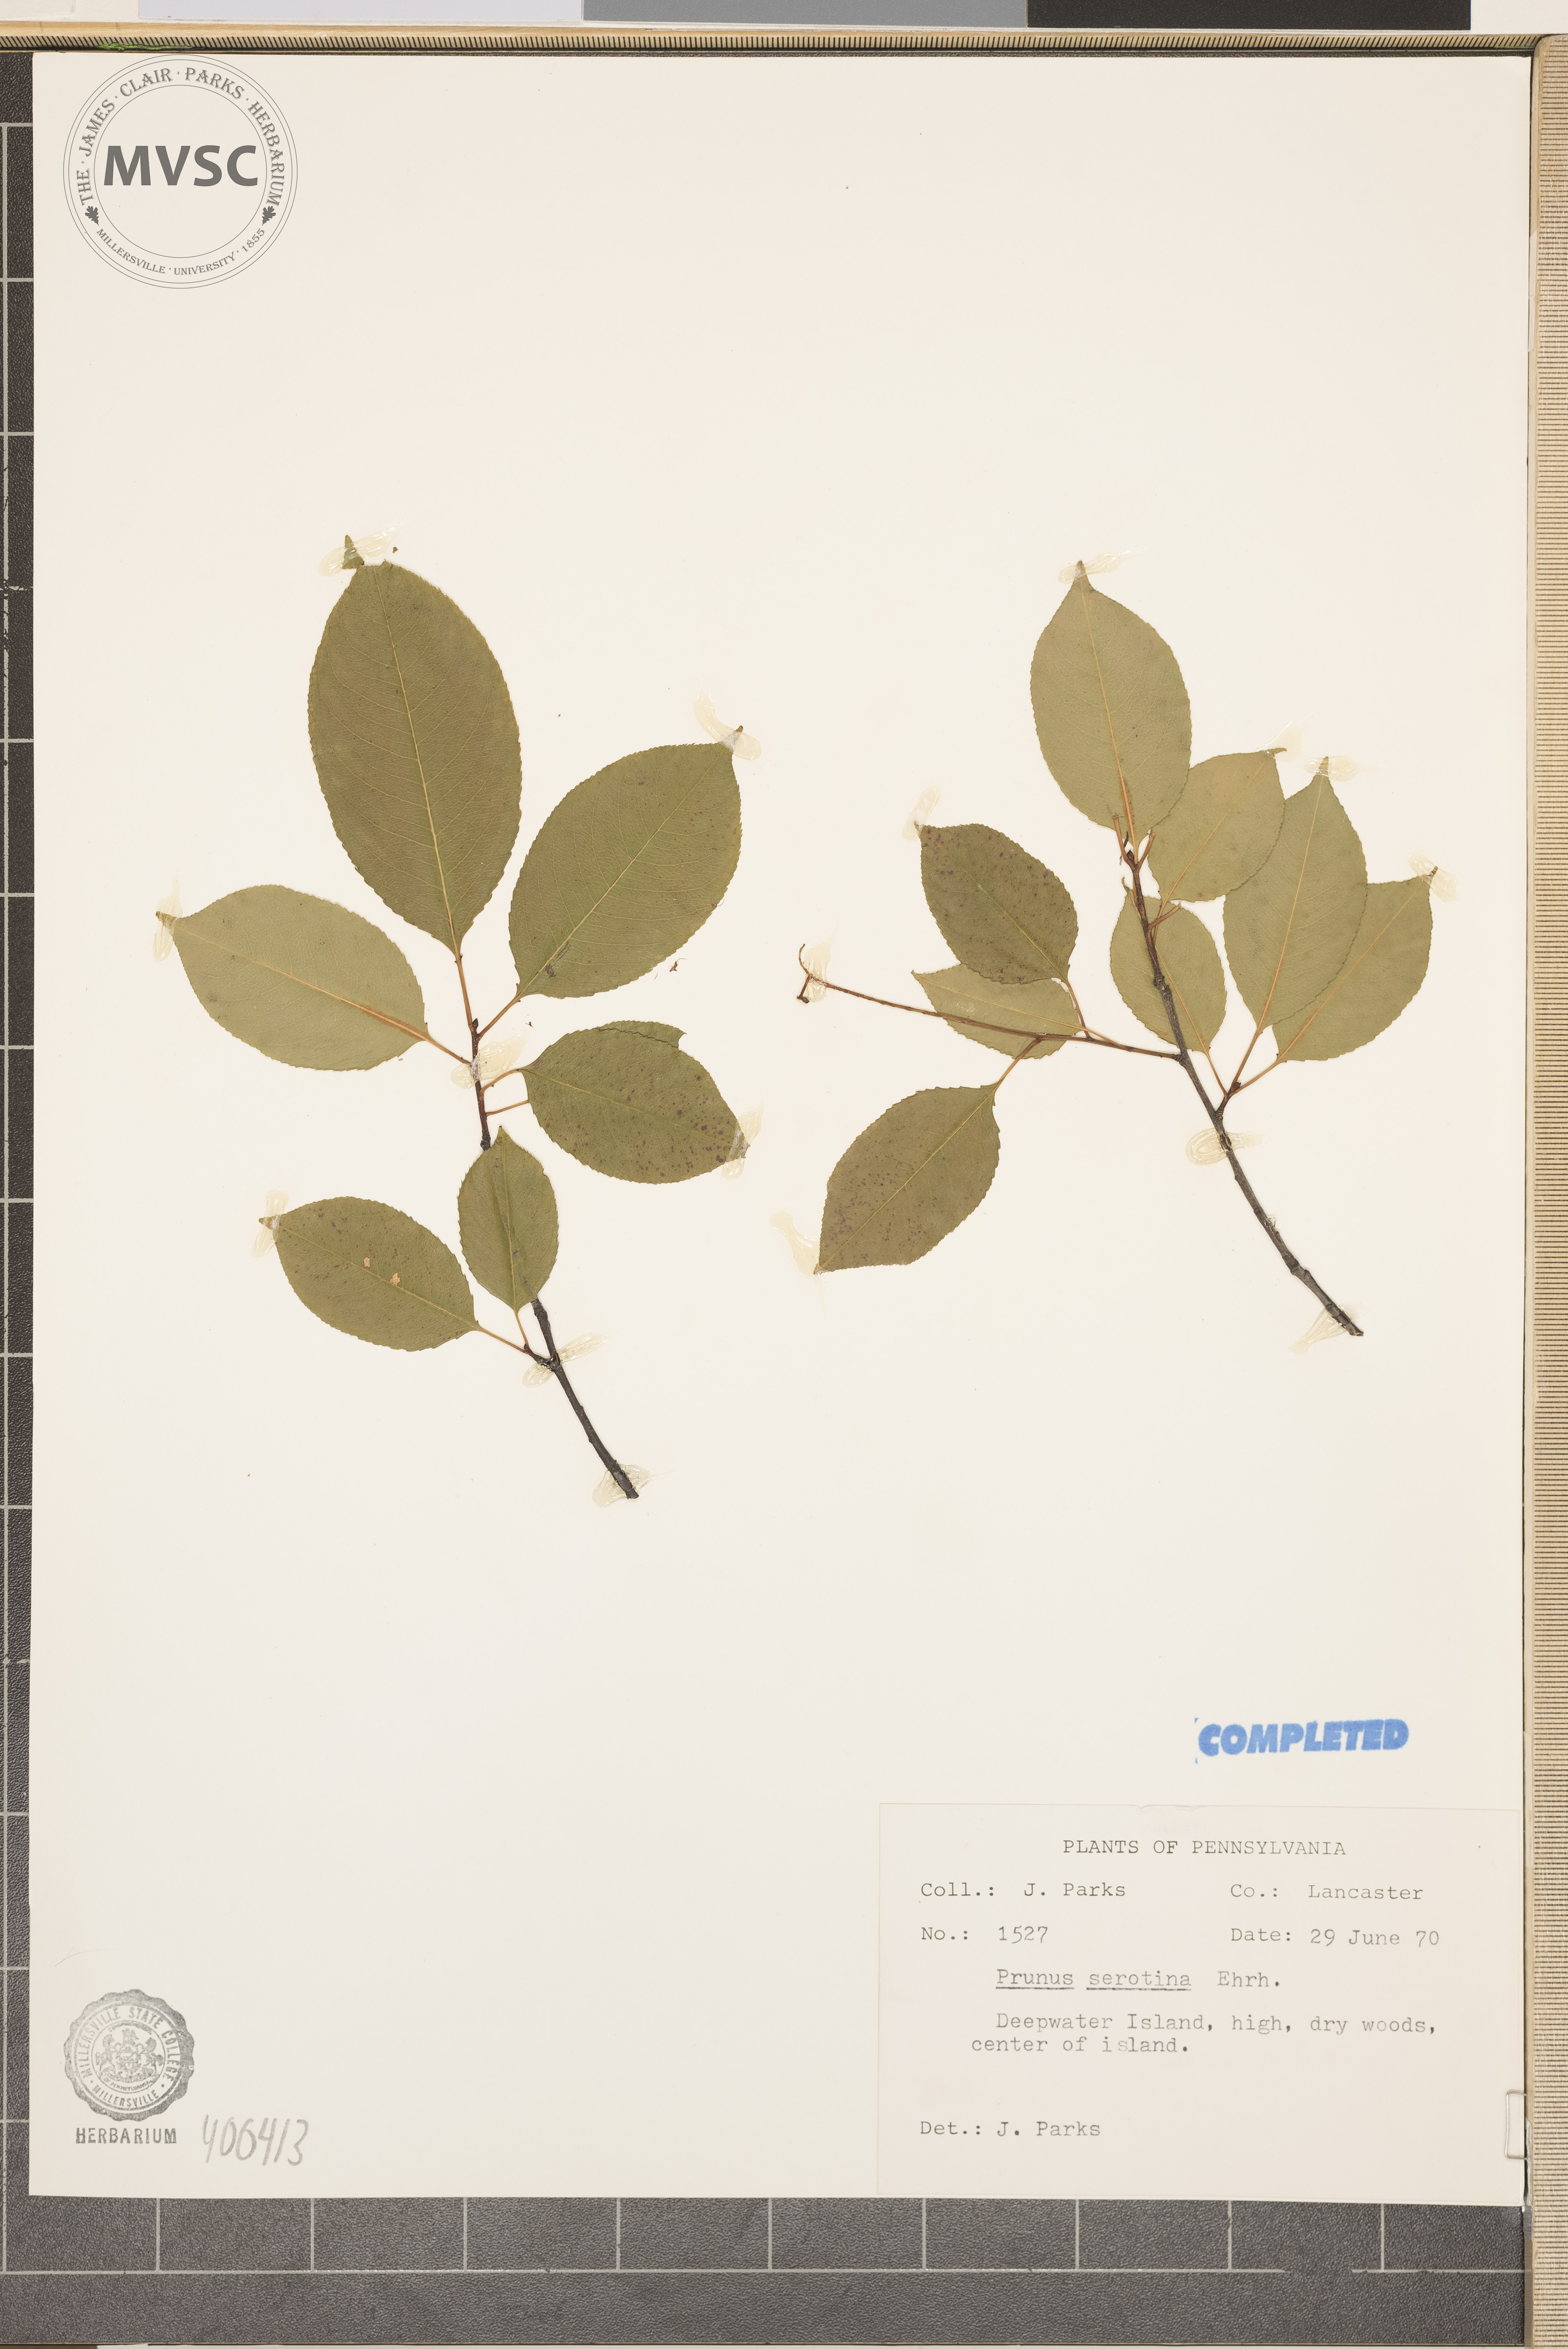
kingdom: Plantae
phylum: Tracheophyta
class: Magnoliopsida
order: Rosales
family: Rosaceae
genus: Prunus
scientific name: Prunus serotina
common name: wild black cherry
